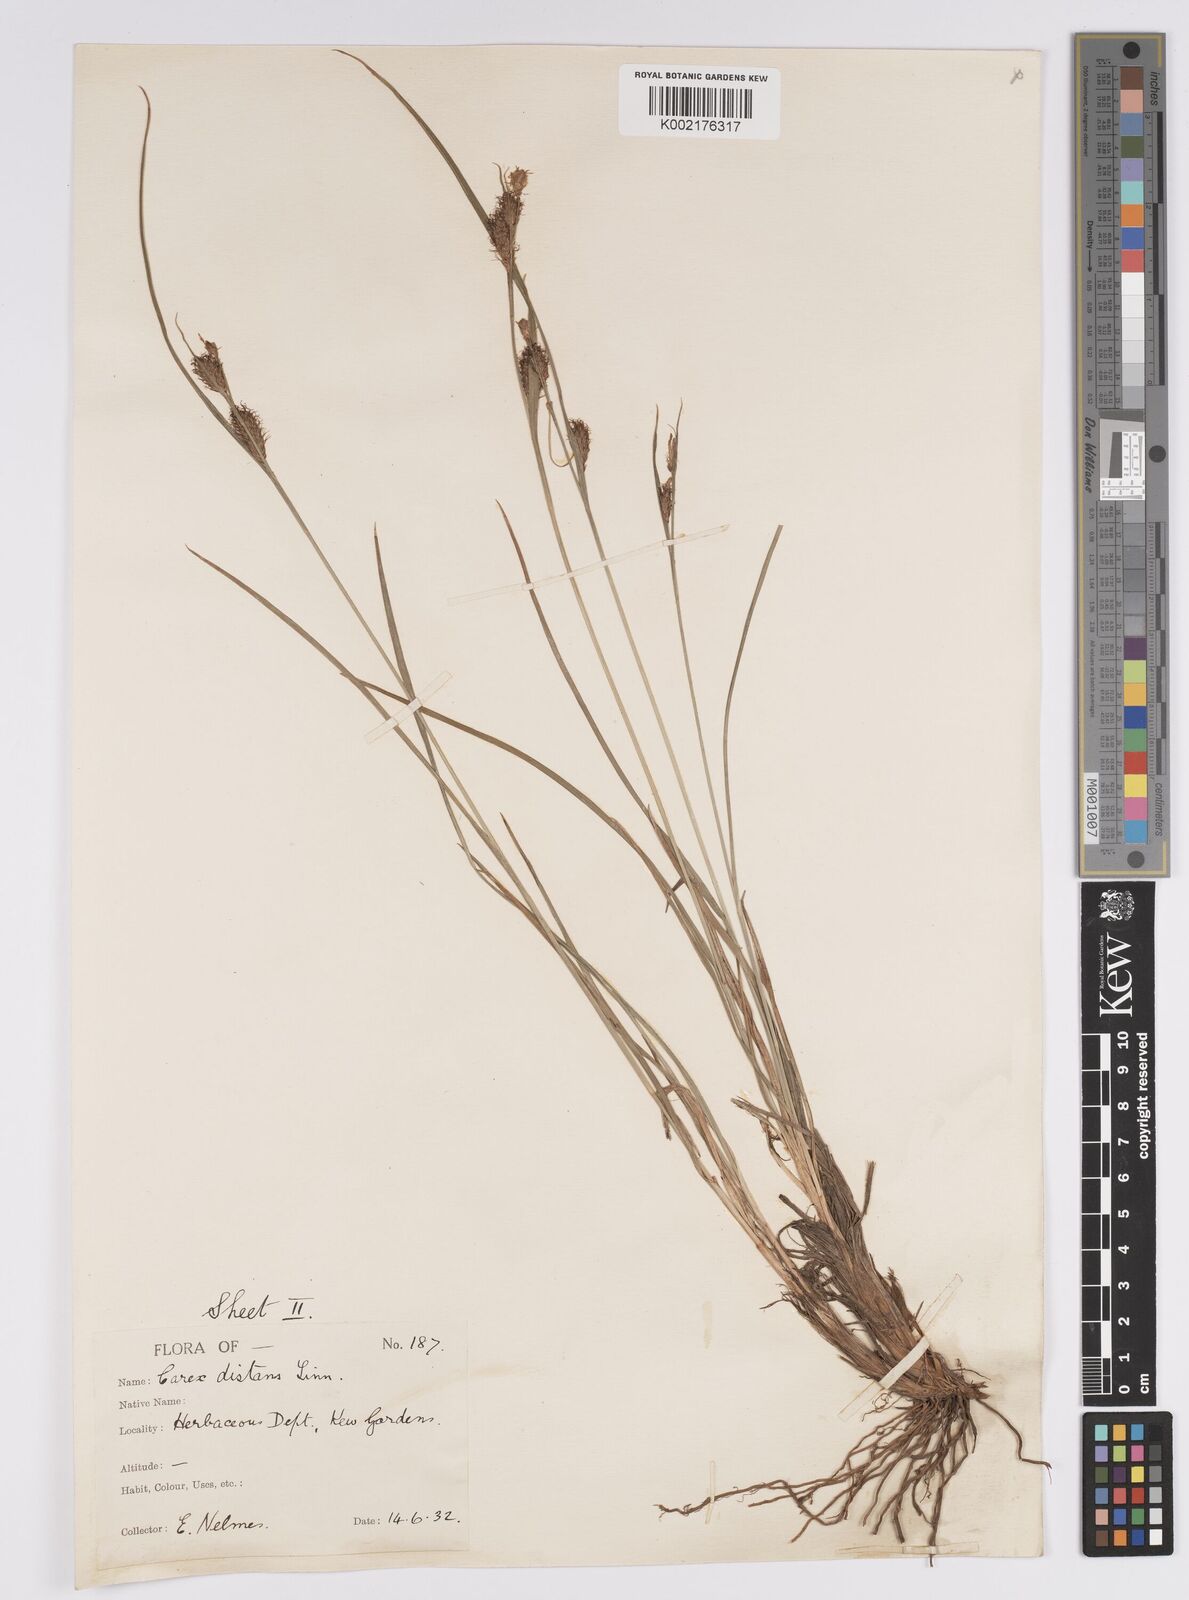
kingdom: Plantae
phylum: Tracheophyta
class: Liliopsida
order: Poales
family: Cyperaceae
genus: Carex
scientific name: Carex distans
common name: Distant sedge
